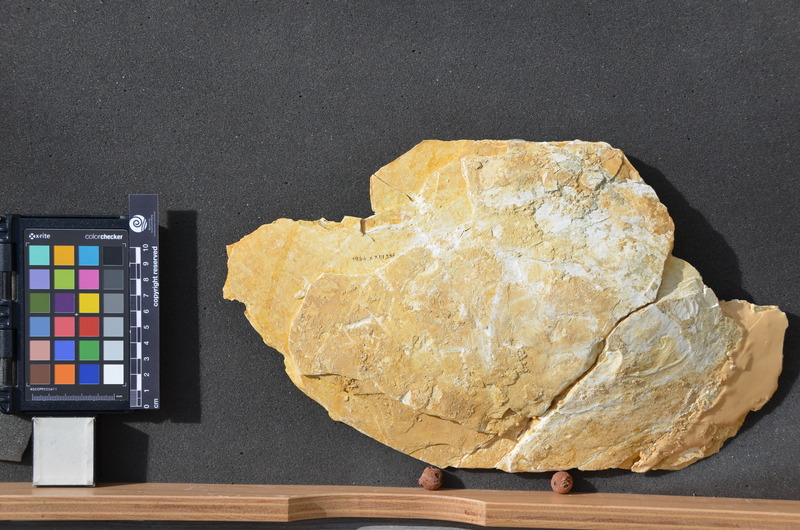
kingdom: Animalia
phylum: Chordata
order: Amiiformes
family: Caturidae
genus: Caturus
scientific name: Caturus furcatus
